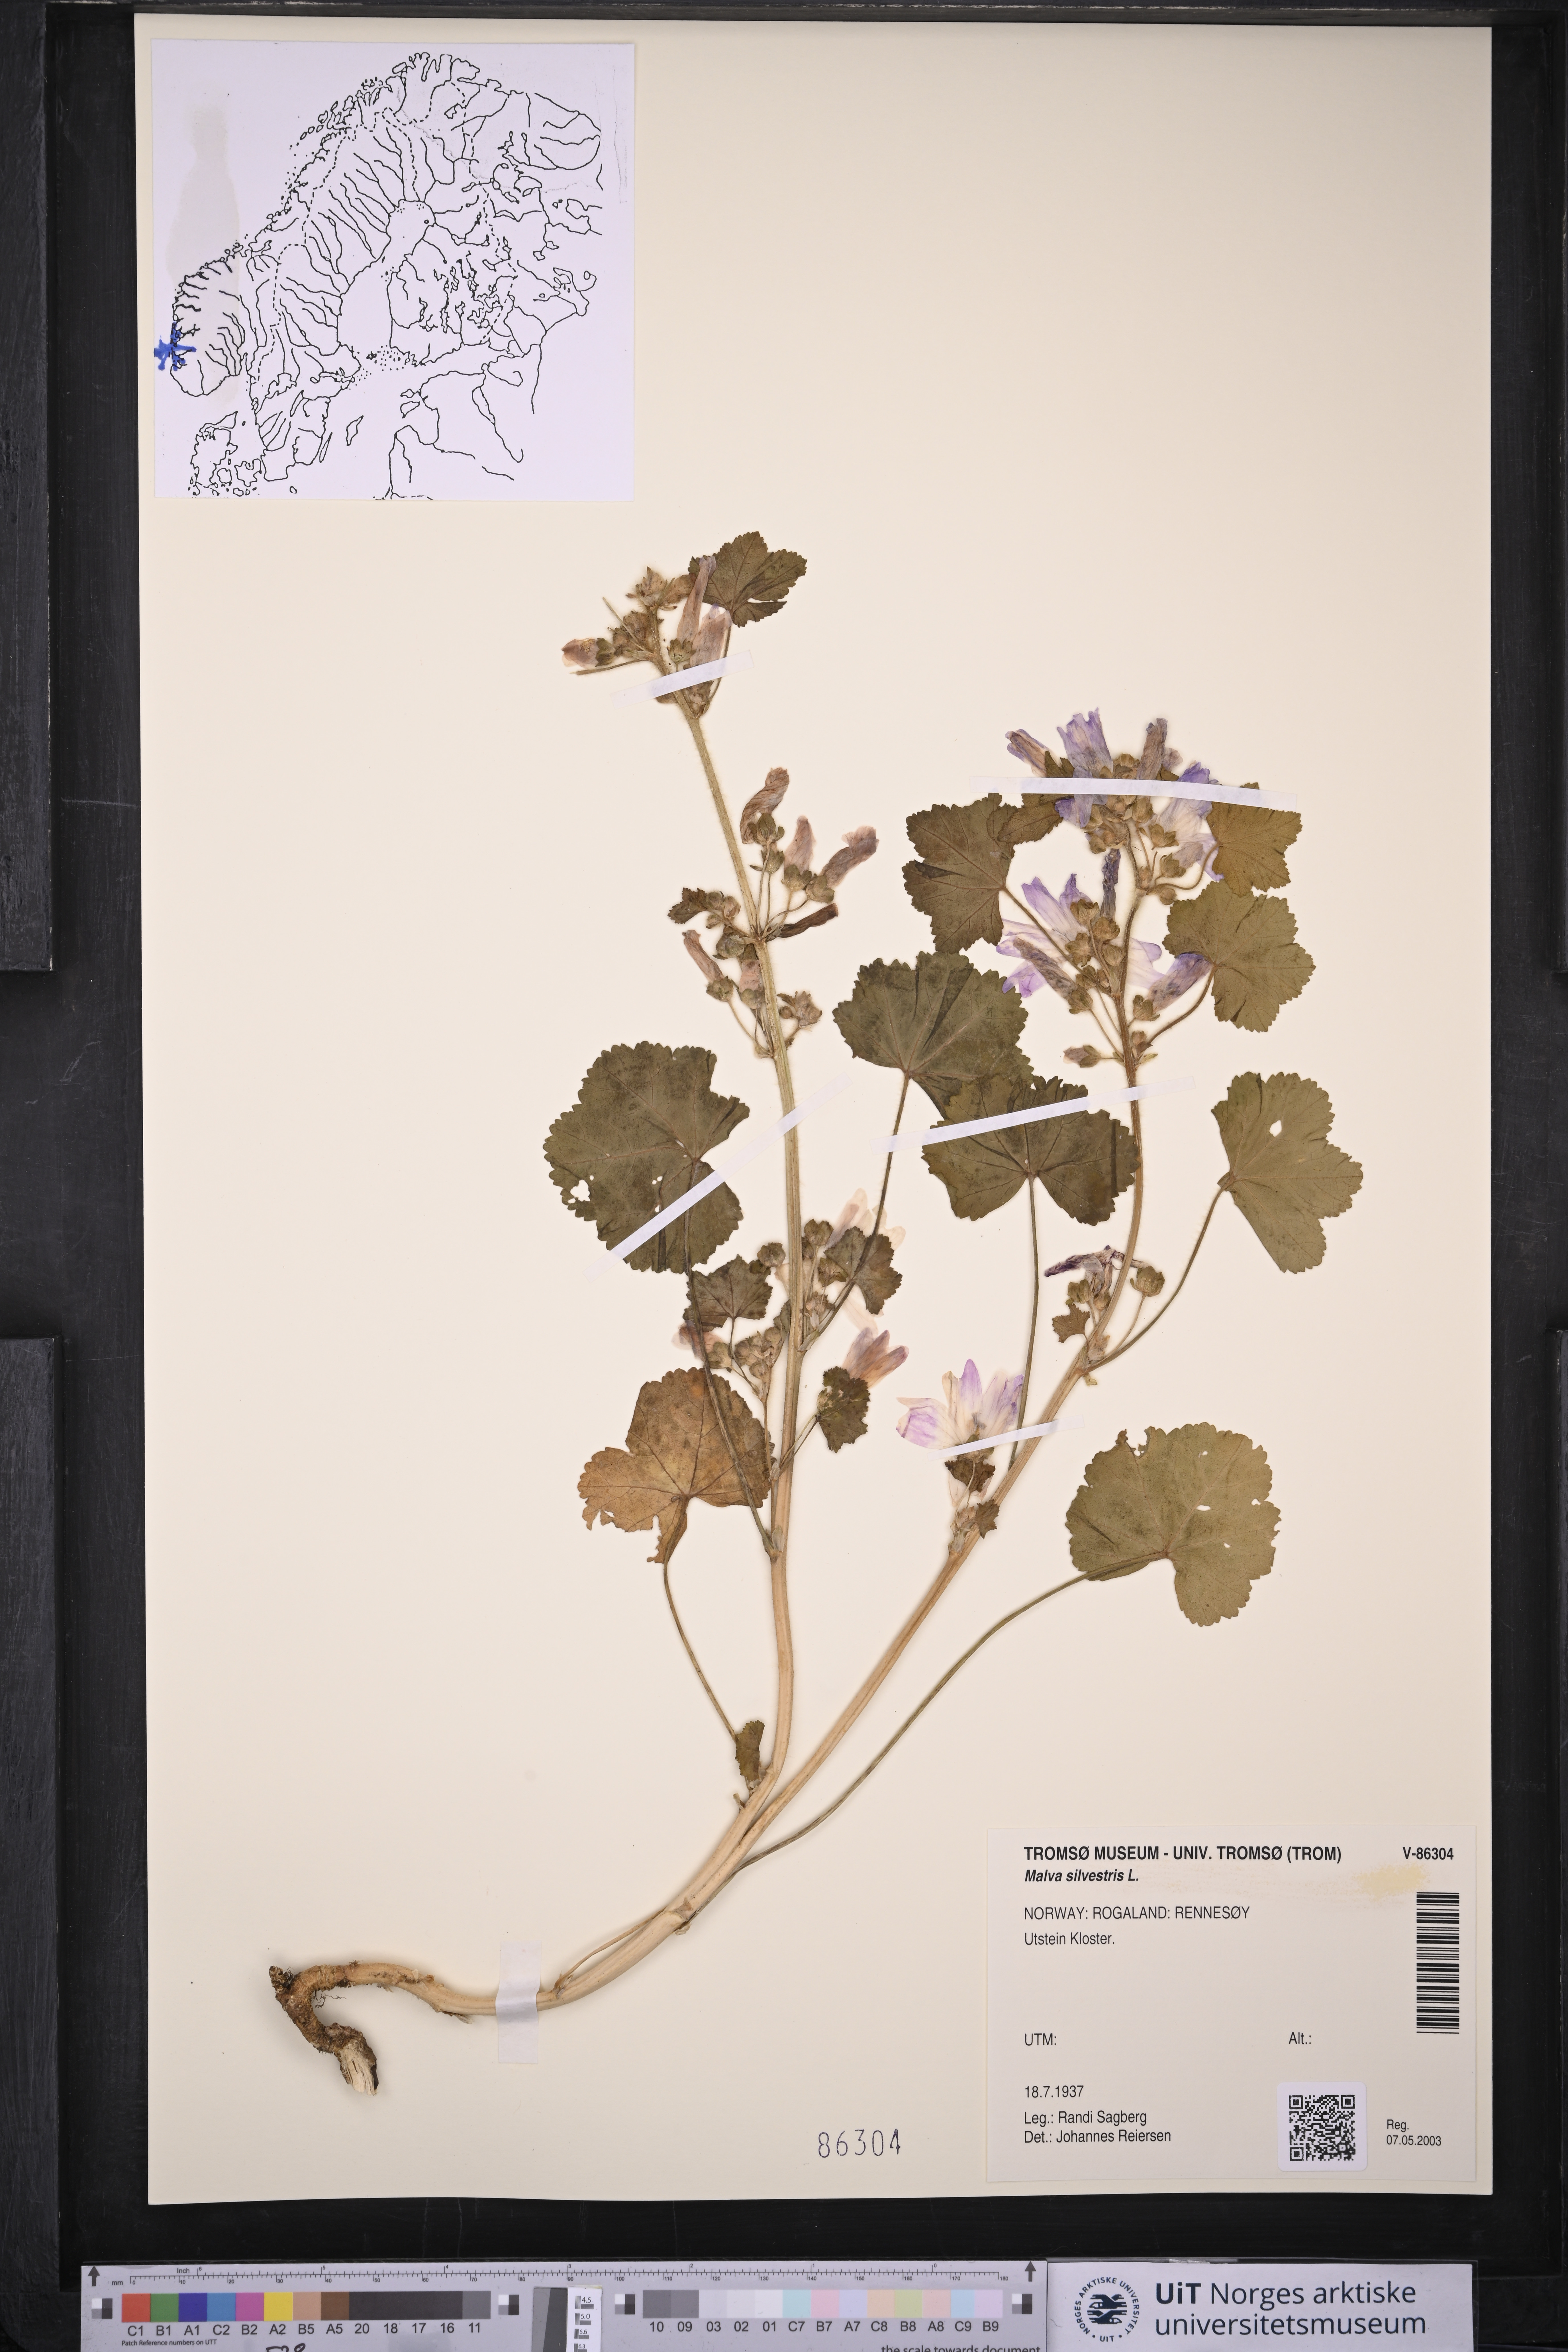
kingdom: Plantae
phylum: Tracheophyta
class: Magnoliopsida
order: Malvales
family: Malvaceae
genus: Malva
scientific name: Malva sylvestris
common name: Common mallow
